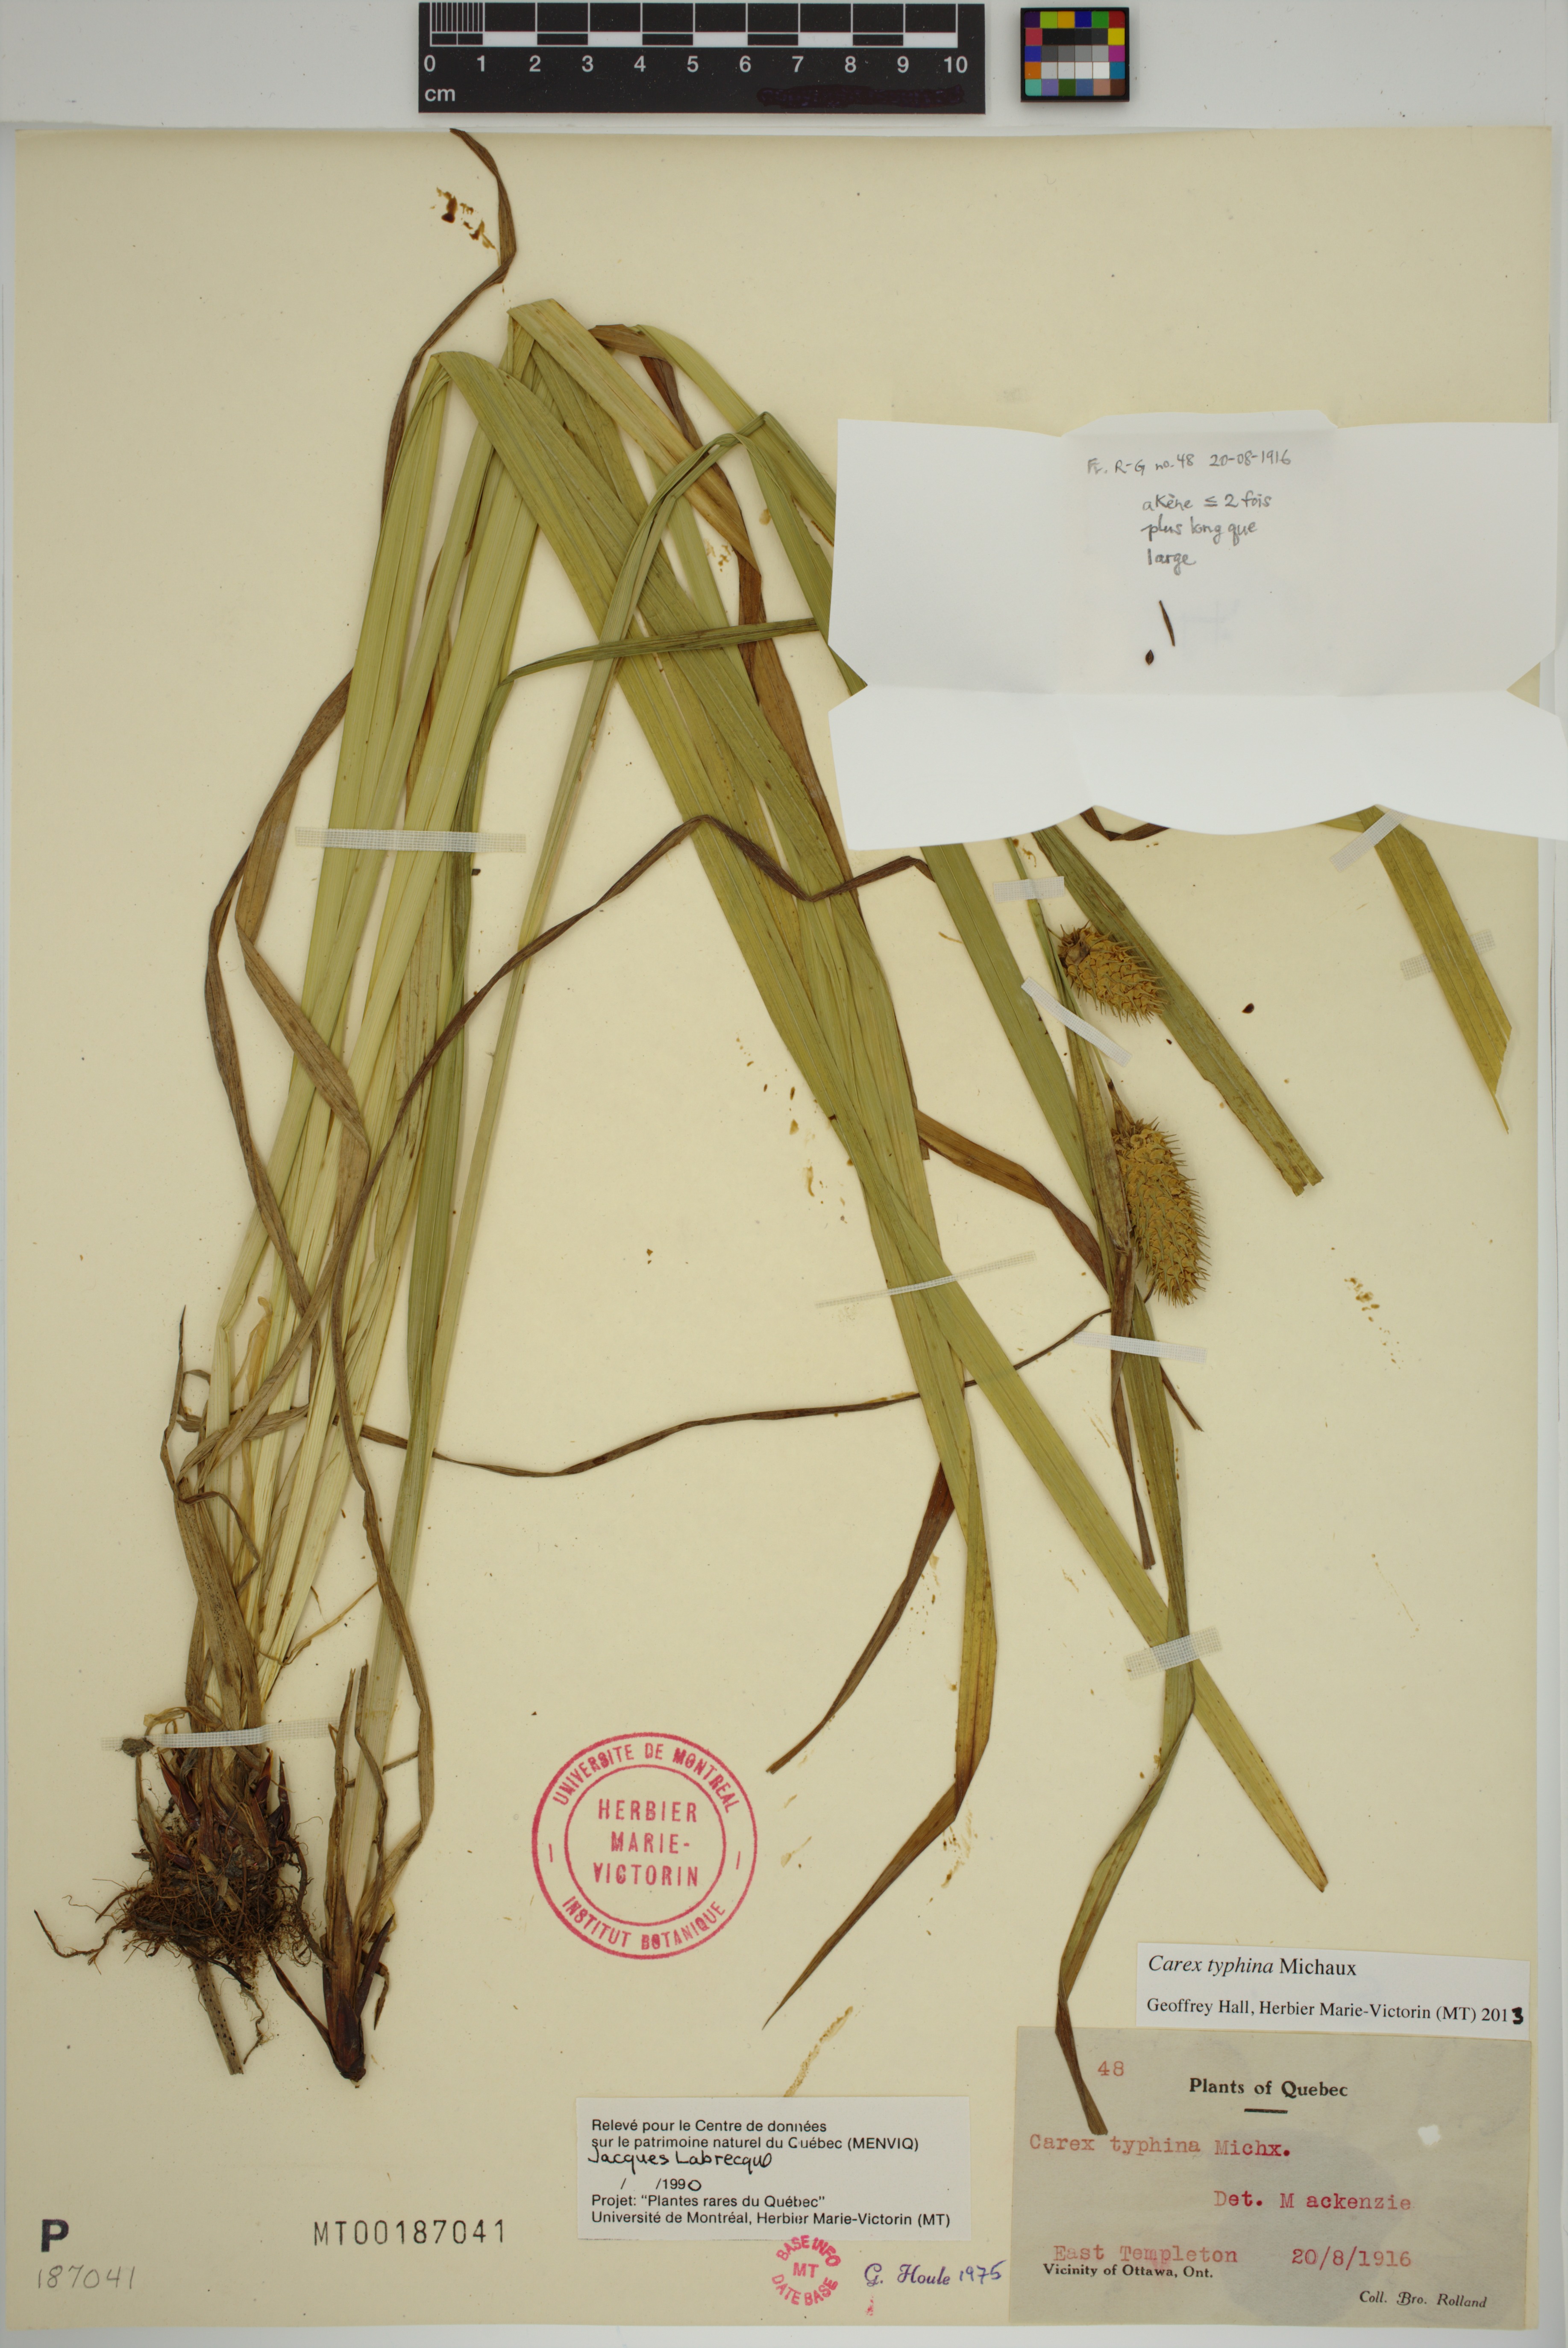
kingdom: Plantae
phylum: Tracheophyta
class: Liliopsida
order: Poales
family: Cyperaceae
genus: Carex
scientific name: Carex typhina
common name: Cattail sedge
